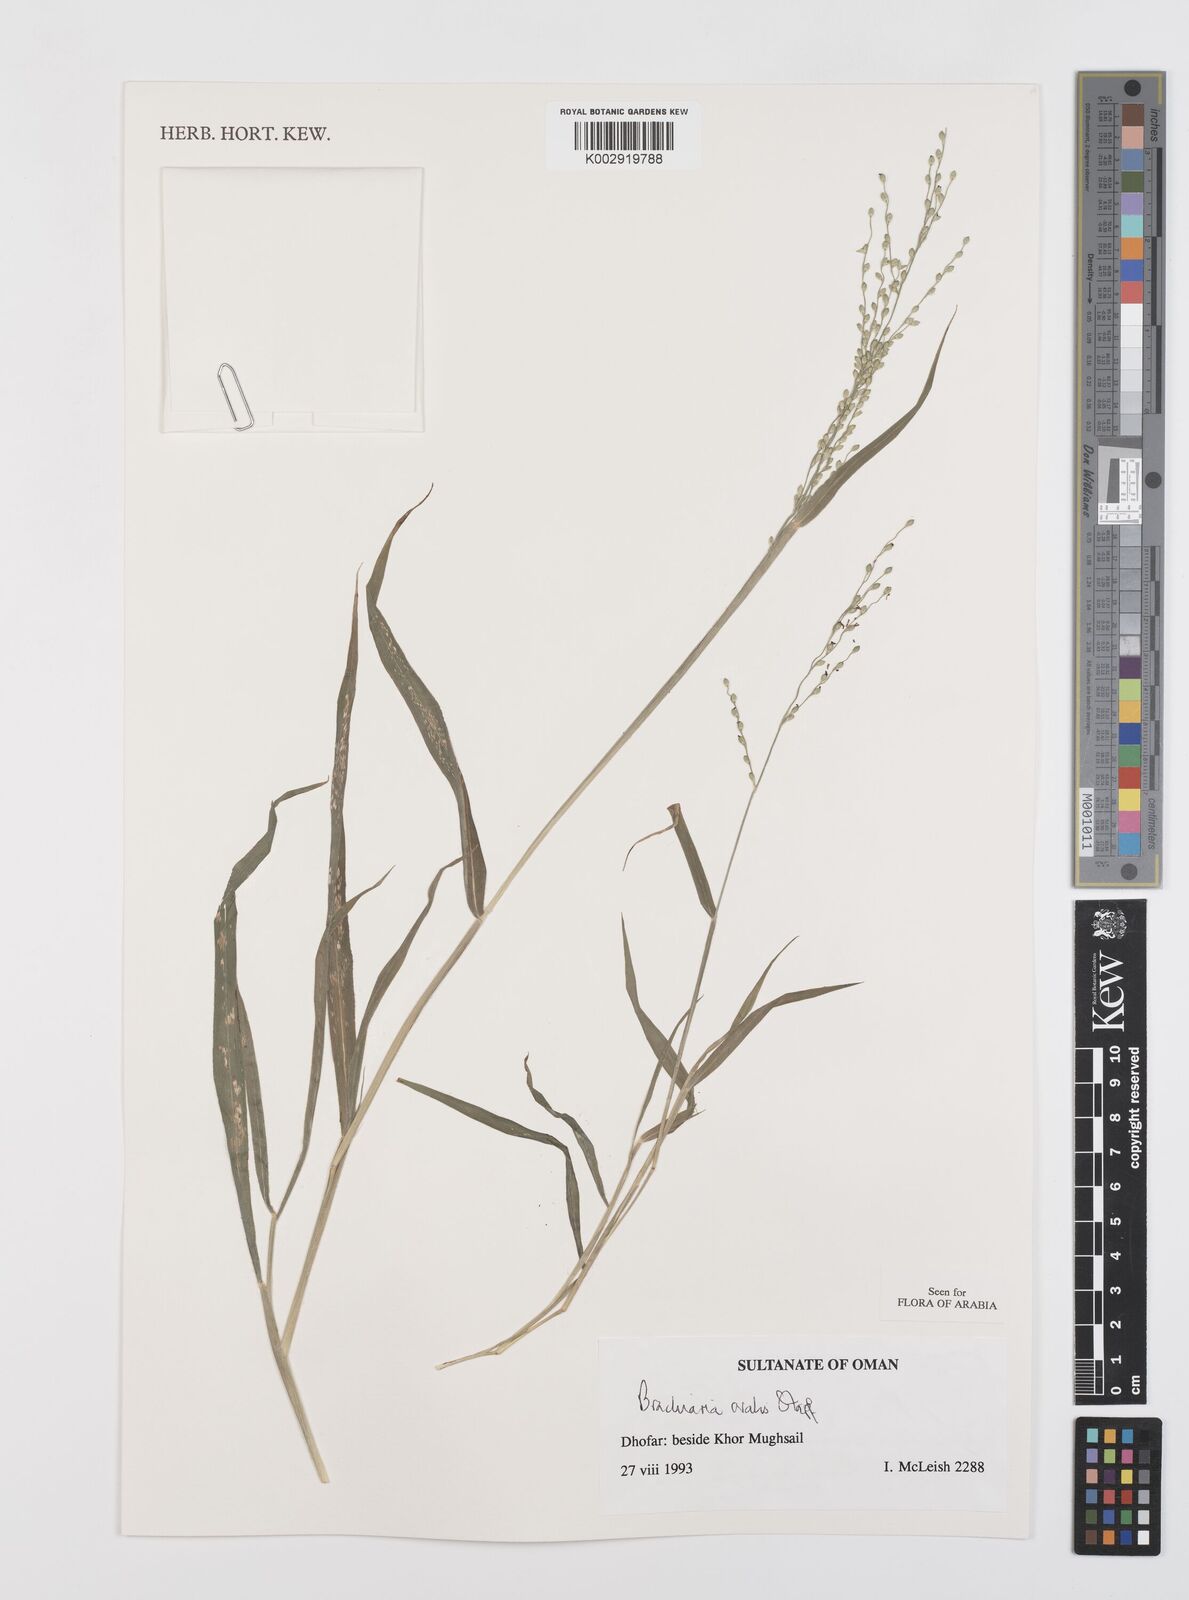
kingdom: Plantae
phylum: Tracheophyta
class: Liliopsida
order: Poales
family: Poaceae
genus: Urochloa
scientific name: Urochloa ovalis
